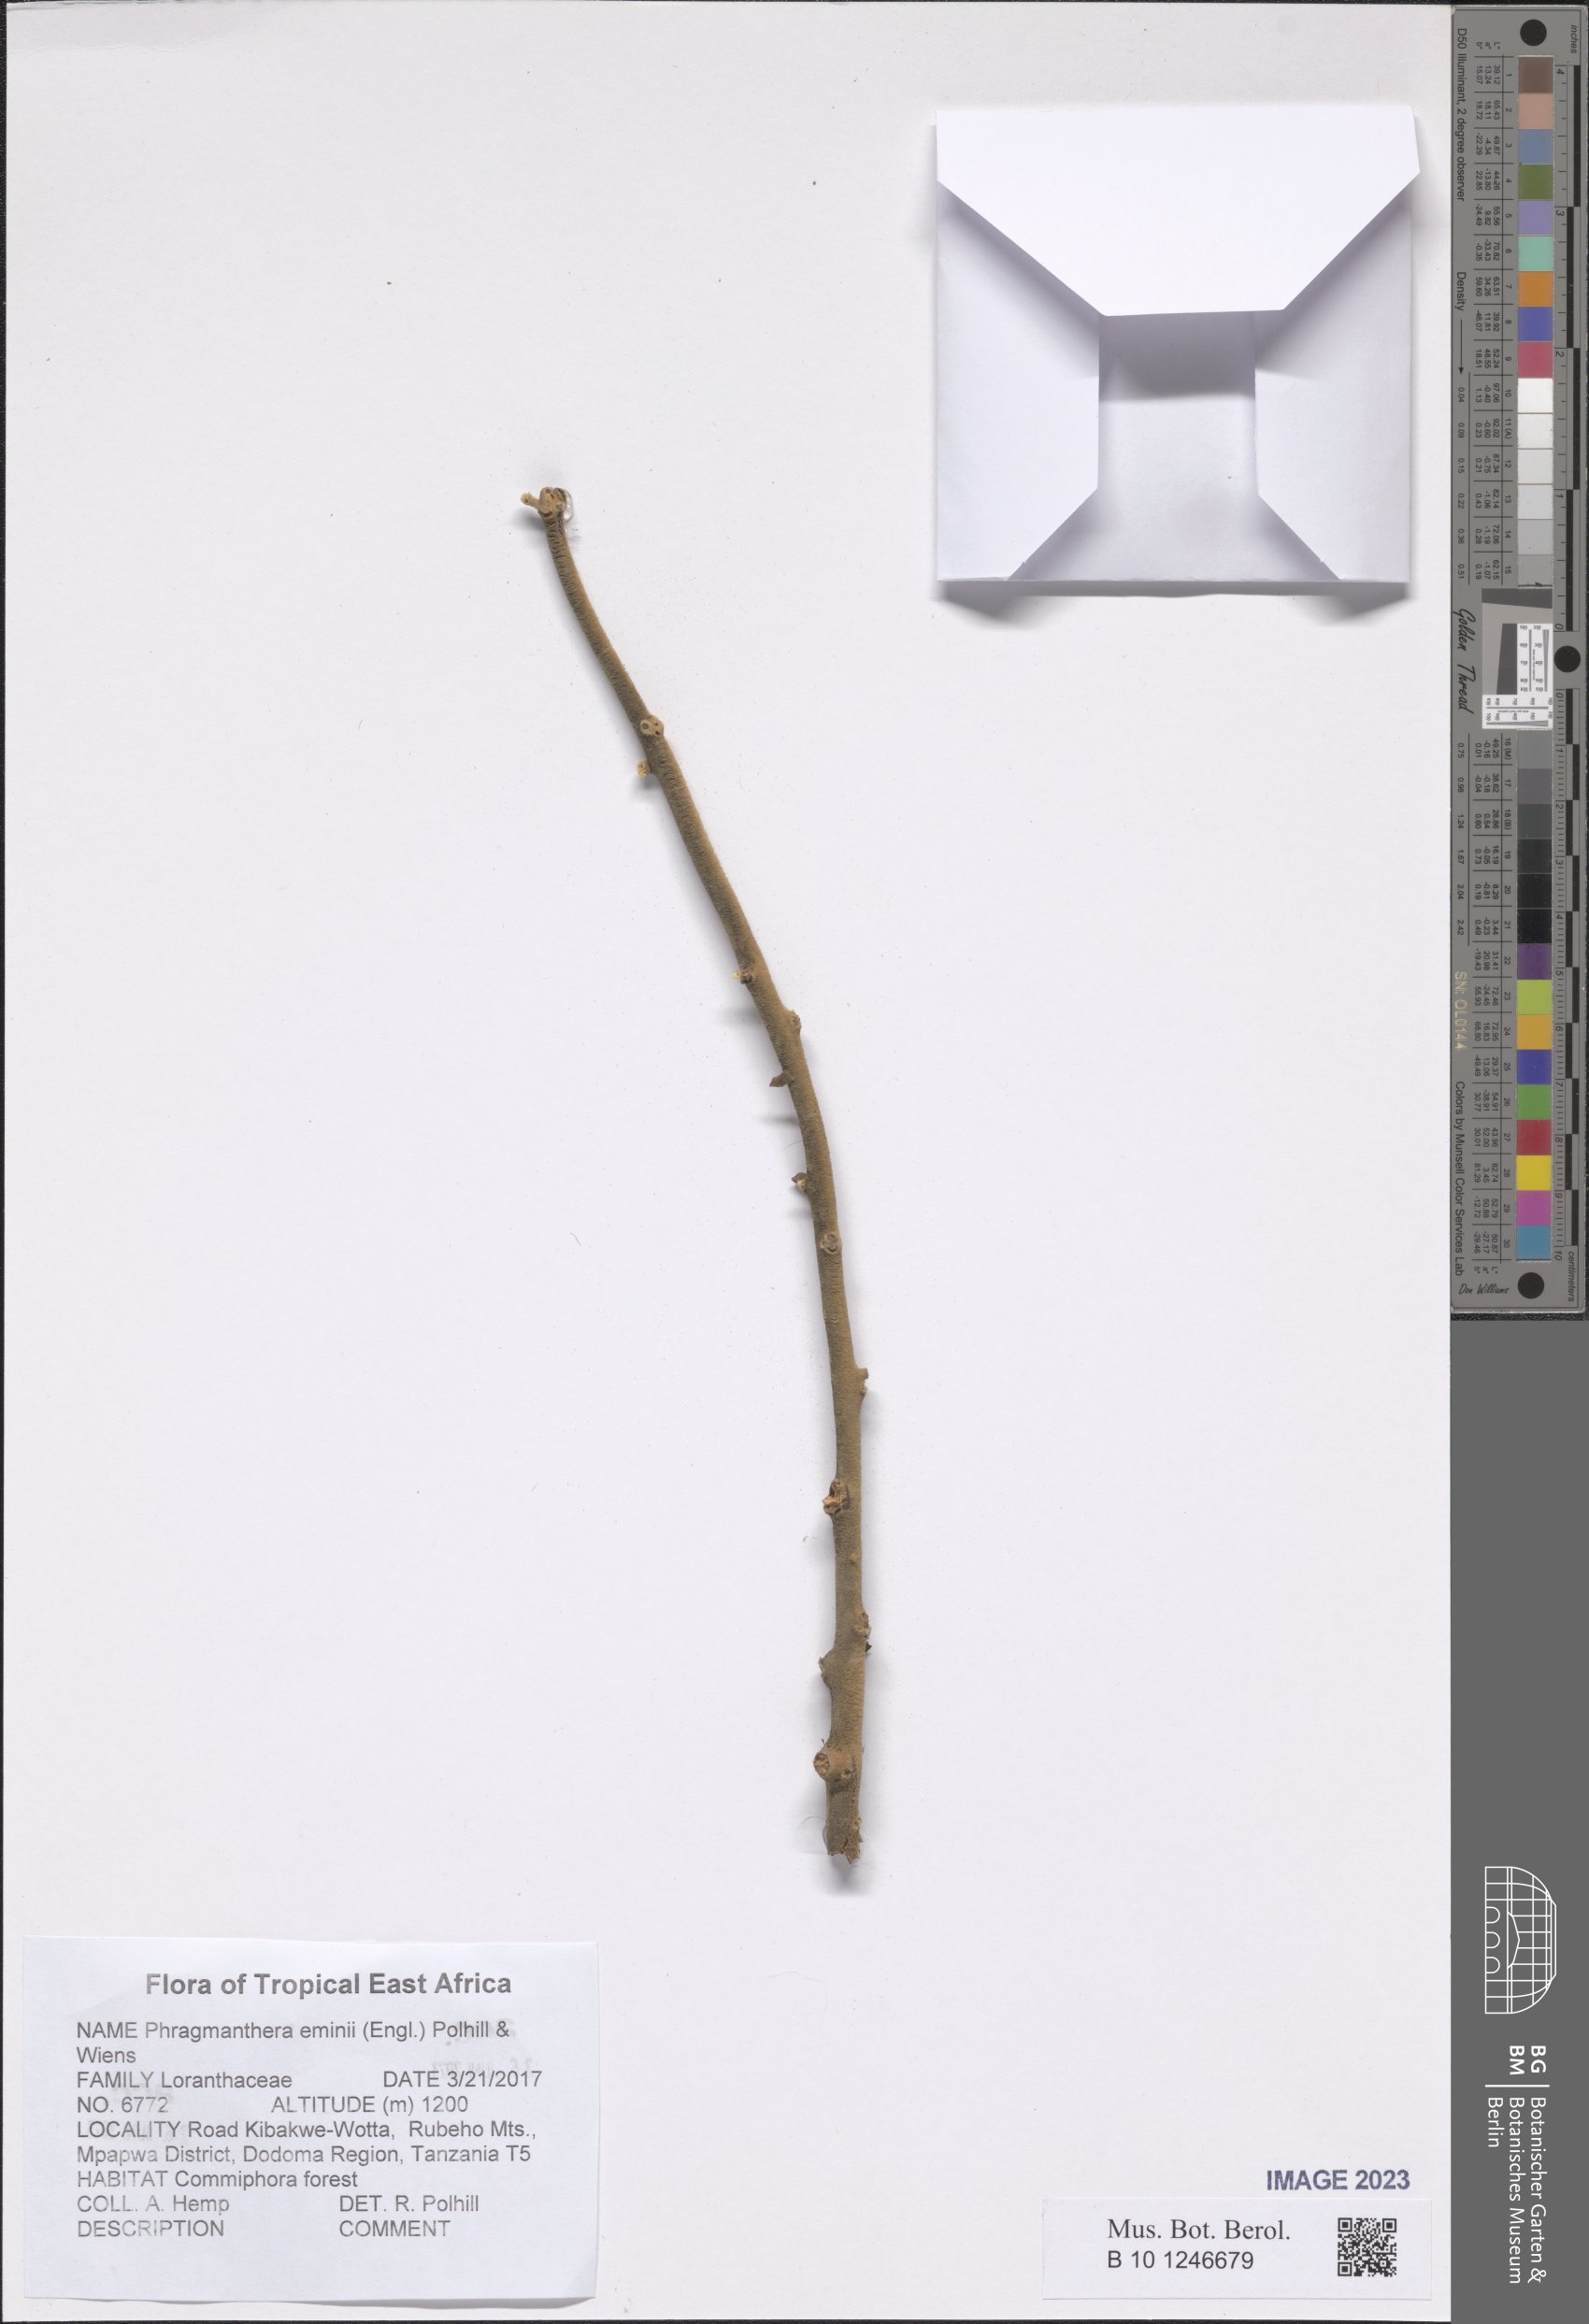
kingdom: Plantae
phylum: Tracheophyta
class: Magnoliopsida
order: Santalales
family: Loranthaceae
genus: Phragmanthera
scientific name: Phragmanthera eminii
